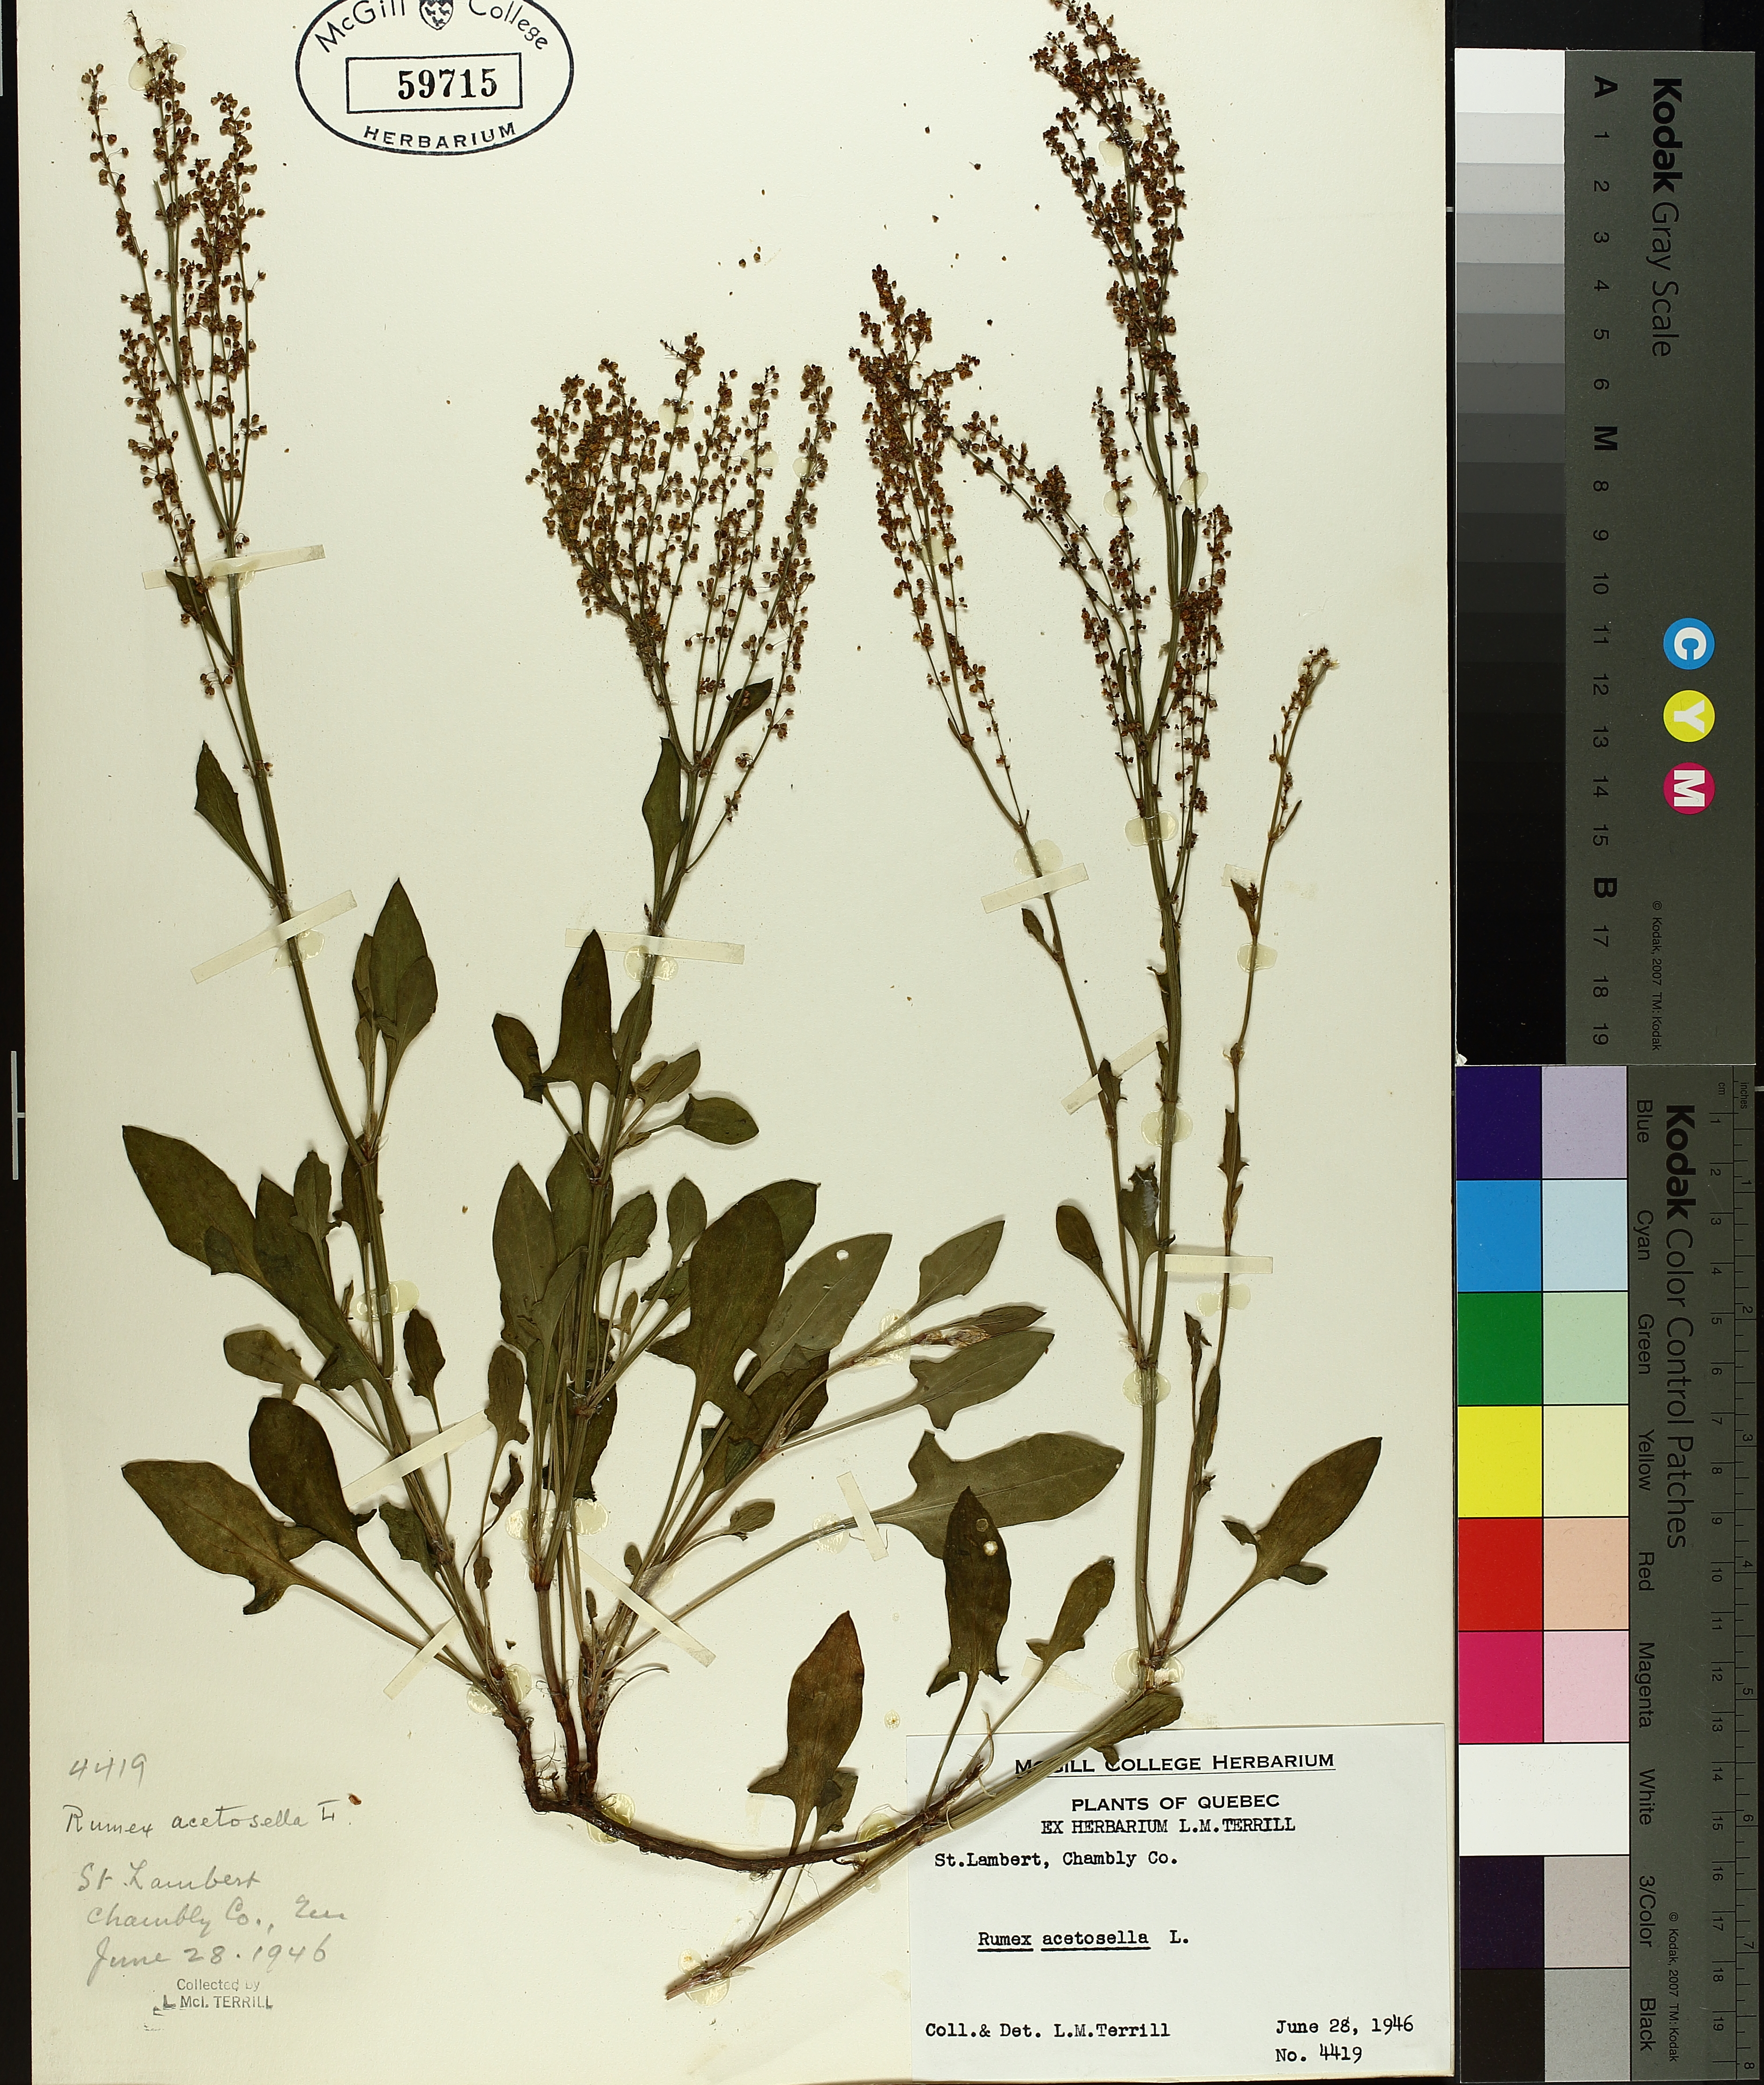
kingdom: Plantae
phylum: Tracheophyta
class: Magnoliopsida
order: Caryophyllales
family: Polygonaceae
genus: Rumex
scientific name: Rumex acetosella
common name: Common sheep sorrel
